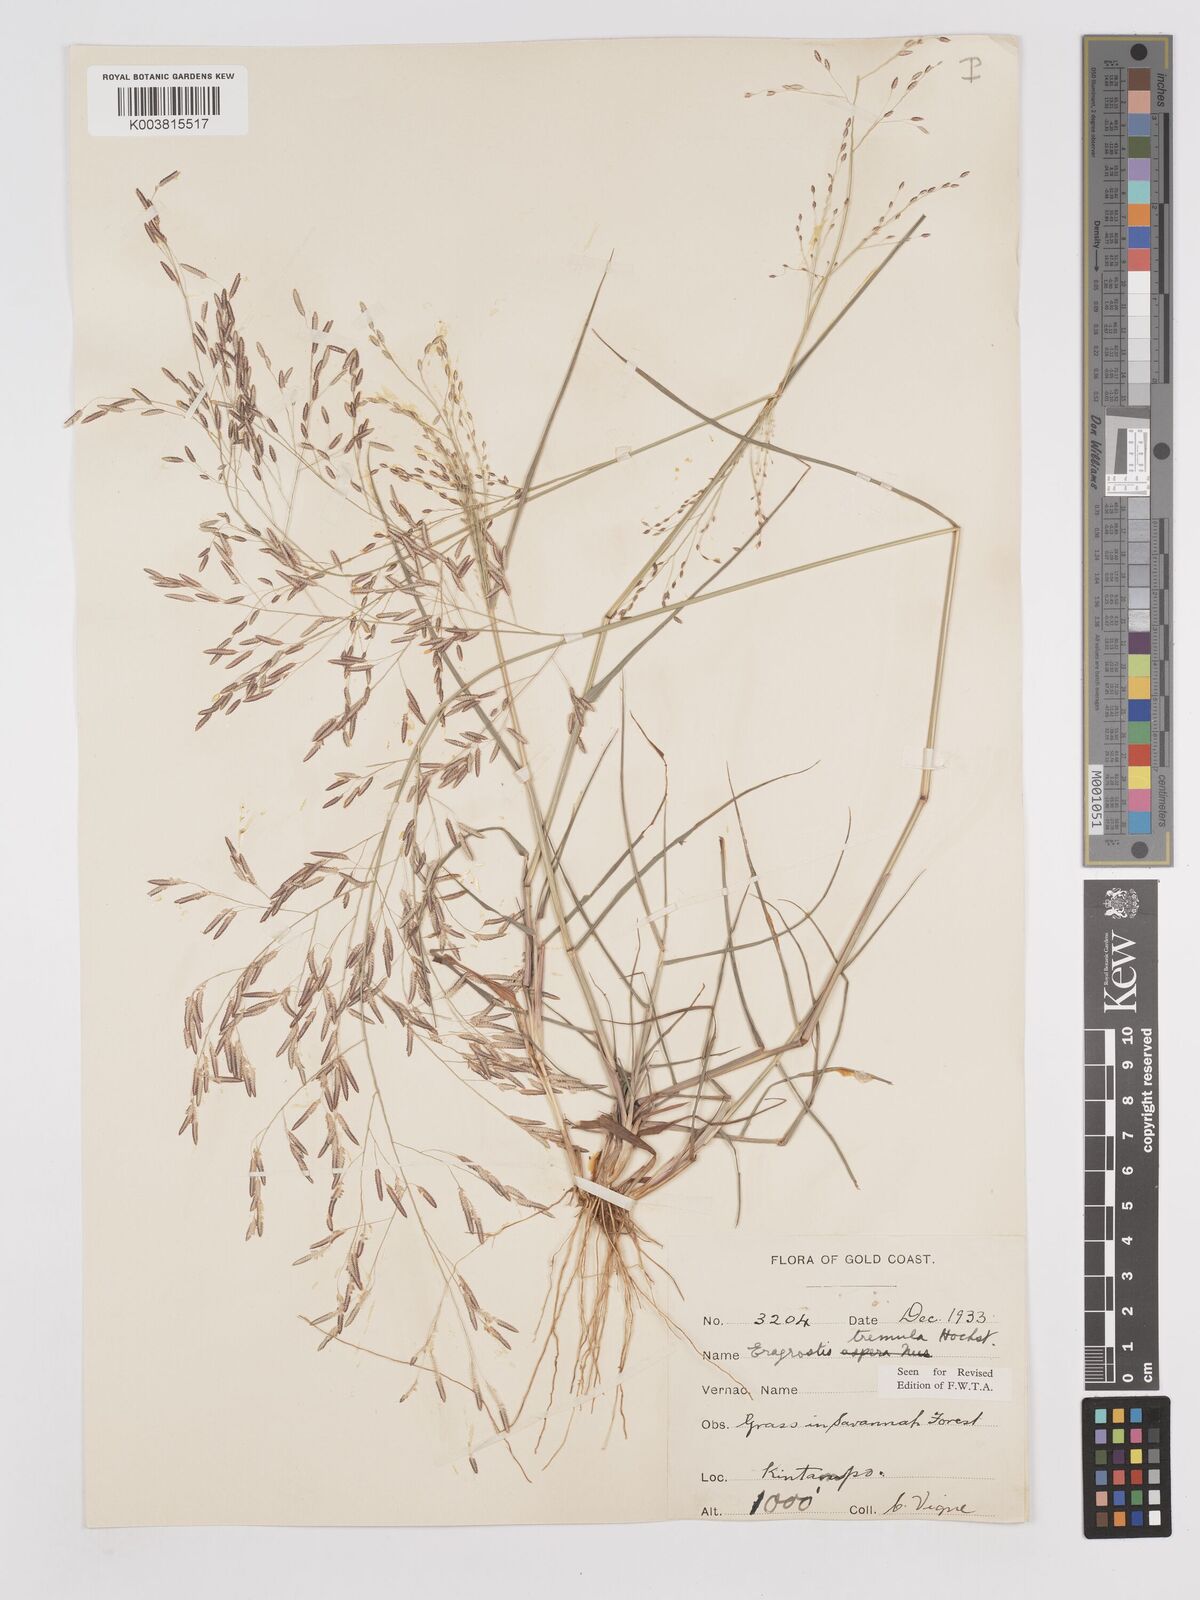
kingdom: Plantae
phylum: Tracheophyta
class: Liliopsida
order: Poales
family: Poaceae
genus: Eragrostis
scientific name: Eragrostis tremula
